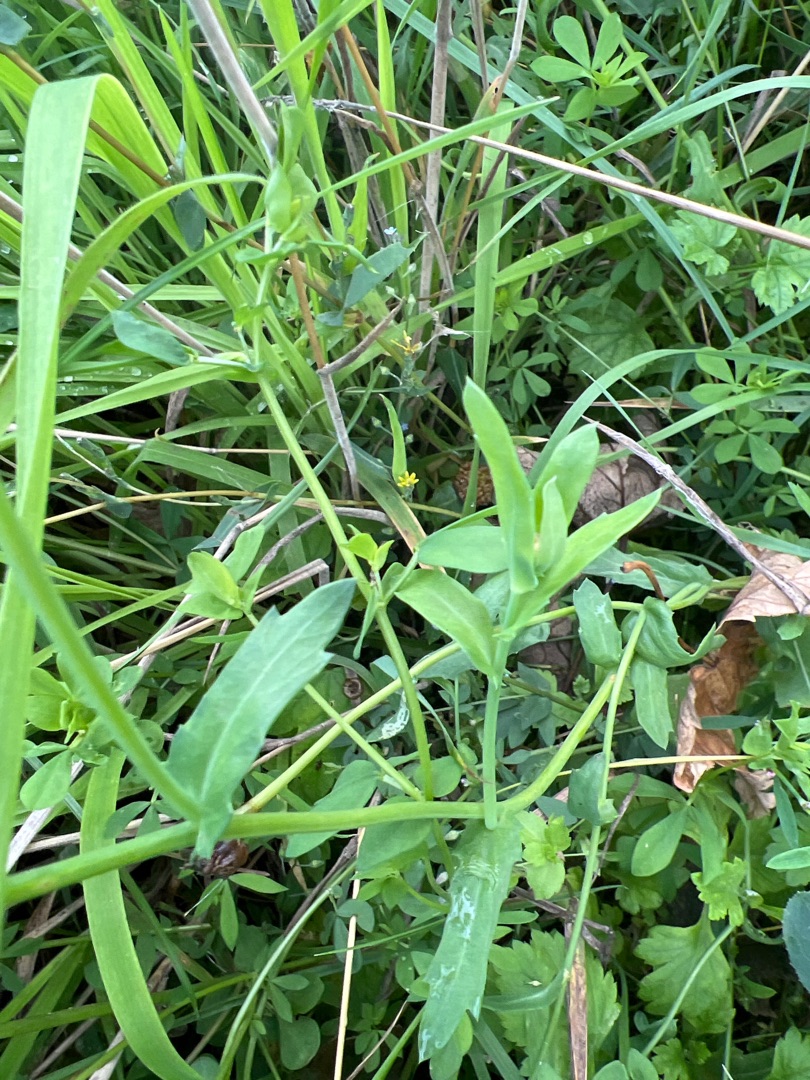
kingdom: Plantae
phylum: Tracheophyta
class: Magnoliopsida
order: Asterales
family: Asteraceae
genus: Glebionis
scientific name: Glebionis segetum
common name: Gul okseøje
